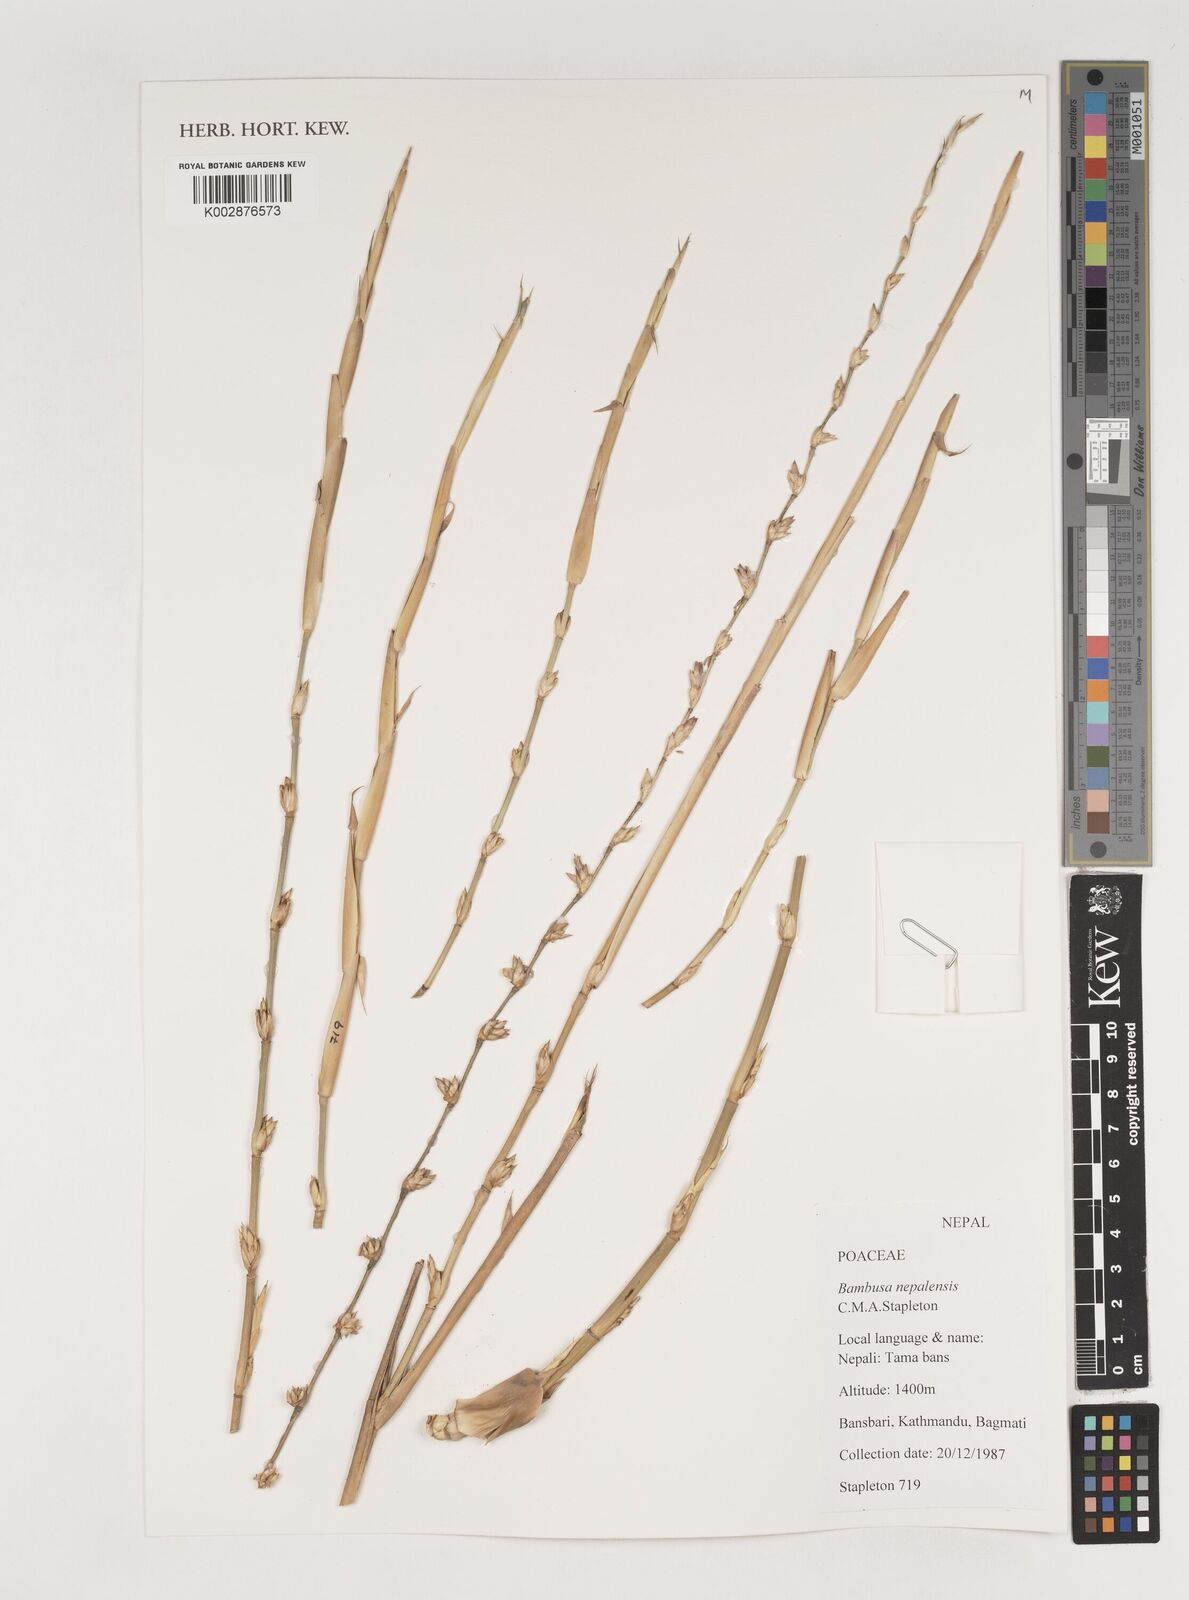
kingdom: Plantae
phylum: Tracheophyta
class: Liliopsida
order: Poales
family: Poaceae
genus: Bambusa
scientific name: Bambusa nepalensis
